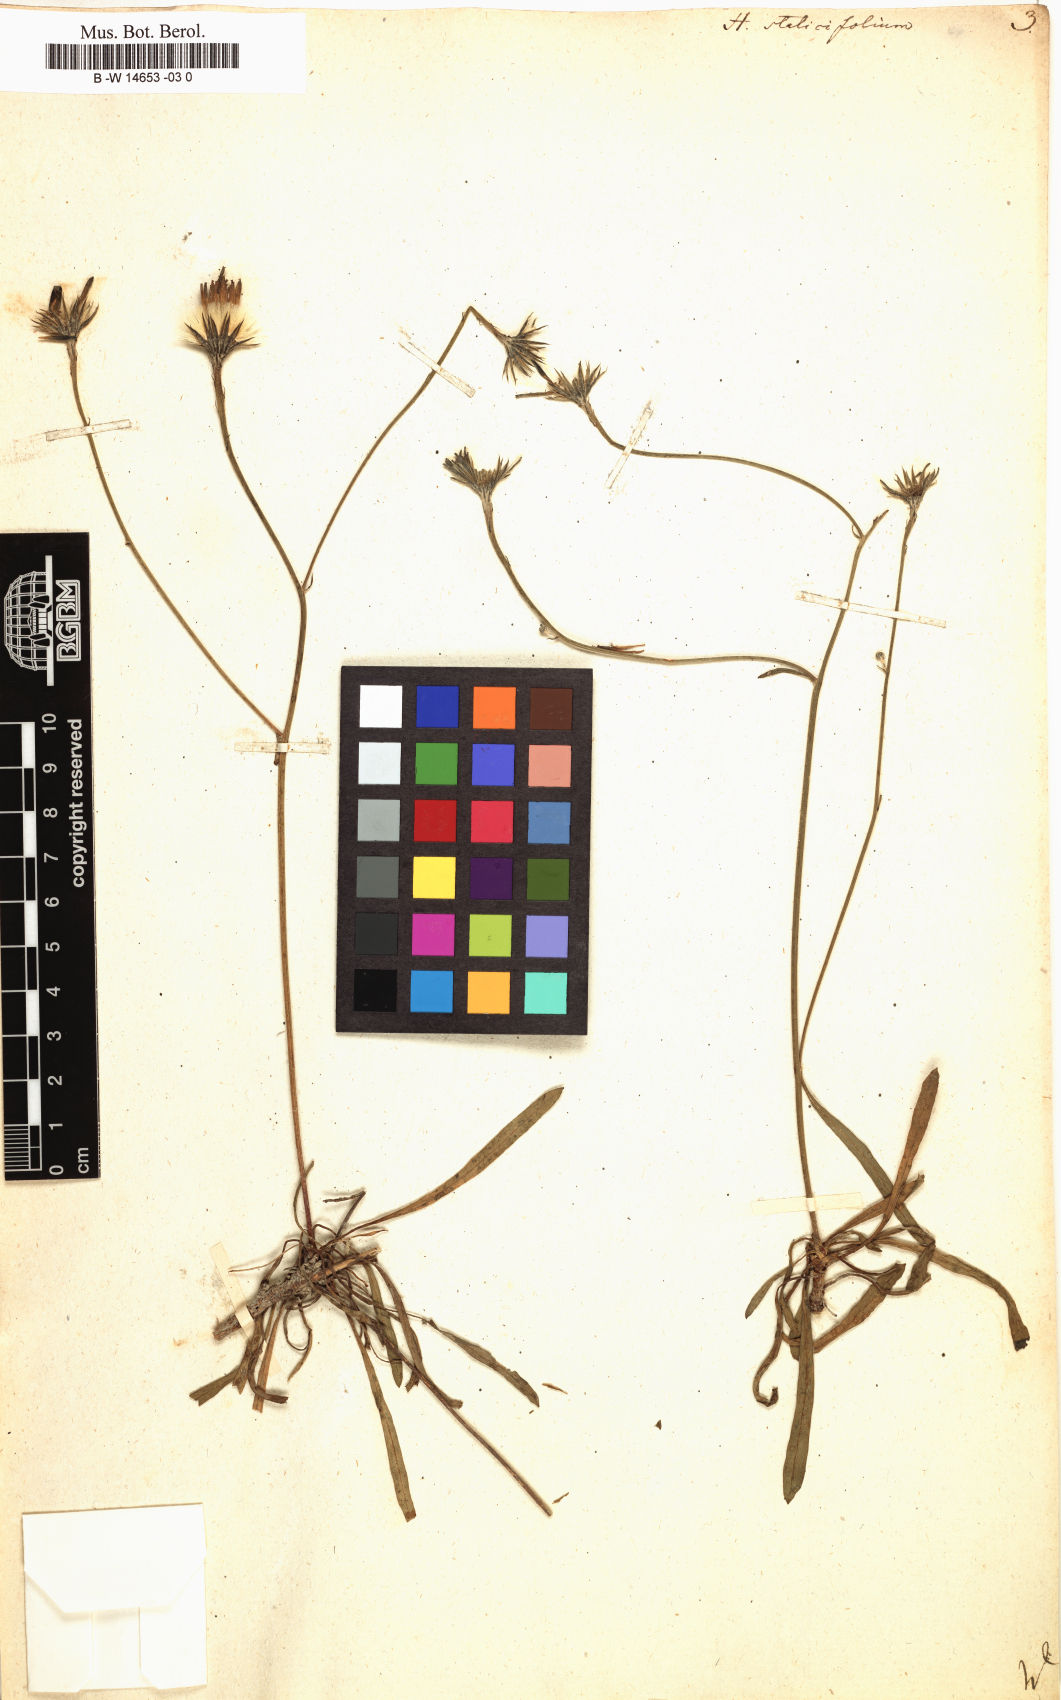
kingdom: Plantae
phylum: Tracheophyta
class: Magnoliopsida
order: Asterales
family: Asteraceae
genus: Hieracium
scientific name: Hieracium staticifolium
